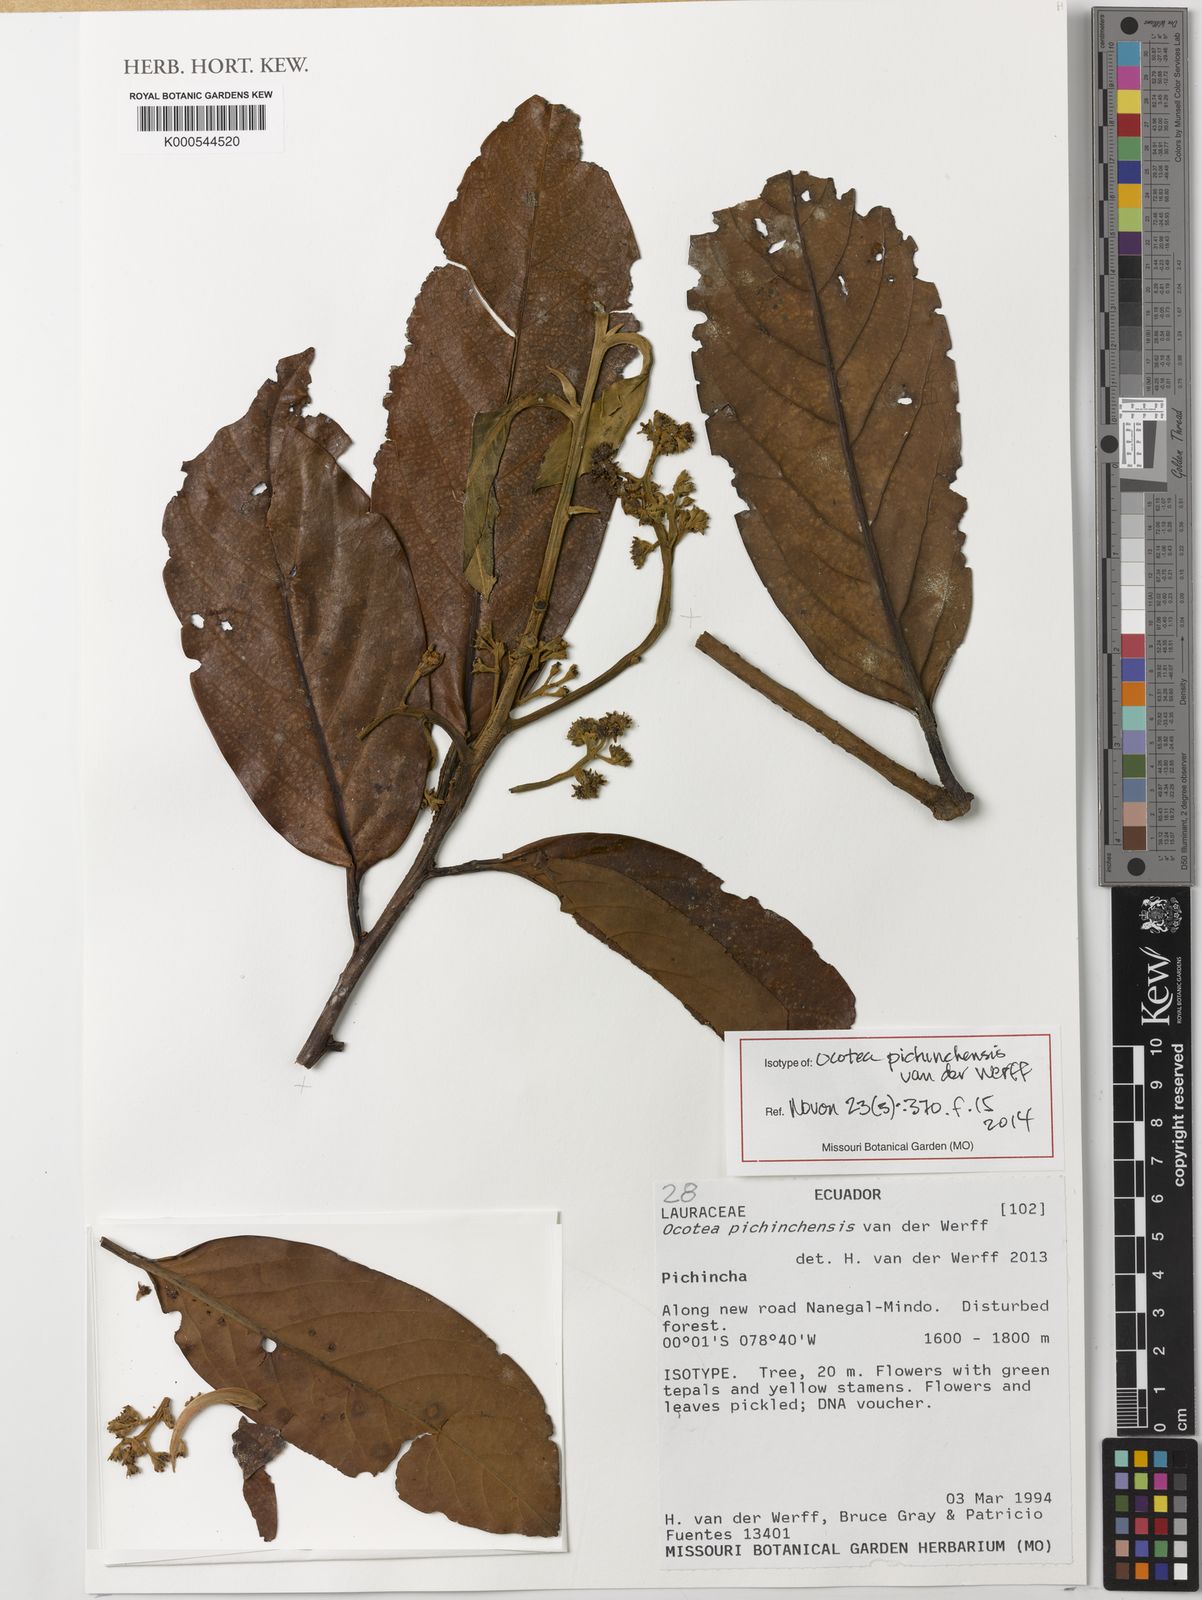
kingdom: Plantae
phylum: Tracheophyta
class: Magnoliopsida
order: Laurales
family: Lauraceae
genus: Ocotea
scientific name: Ocotea pichinchensis
